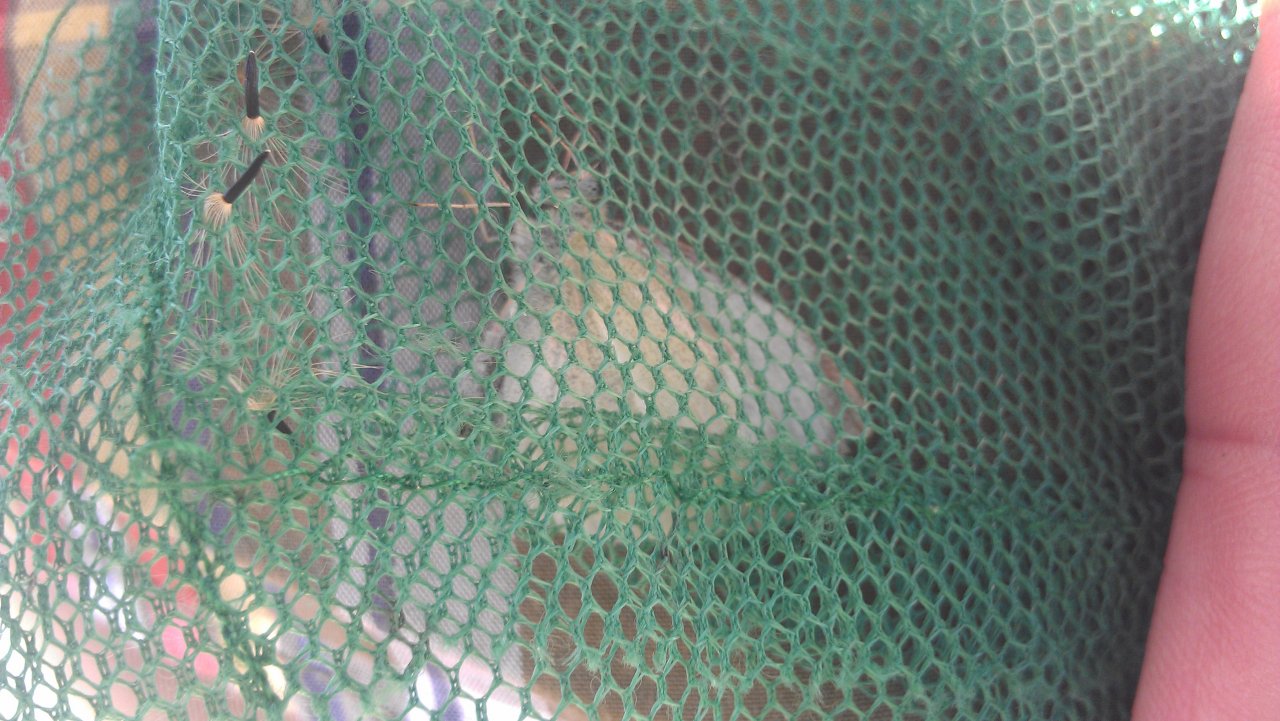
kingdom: Animalia
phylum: Arthropoda
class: Insecta
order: Lepidoptera
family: Pieridae
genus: Pieris
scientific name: Pieris rapae
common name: Cabbage White
